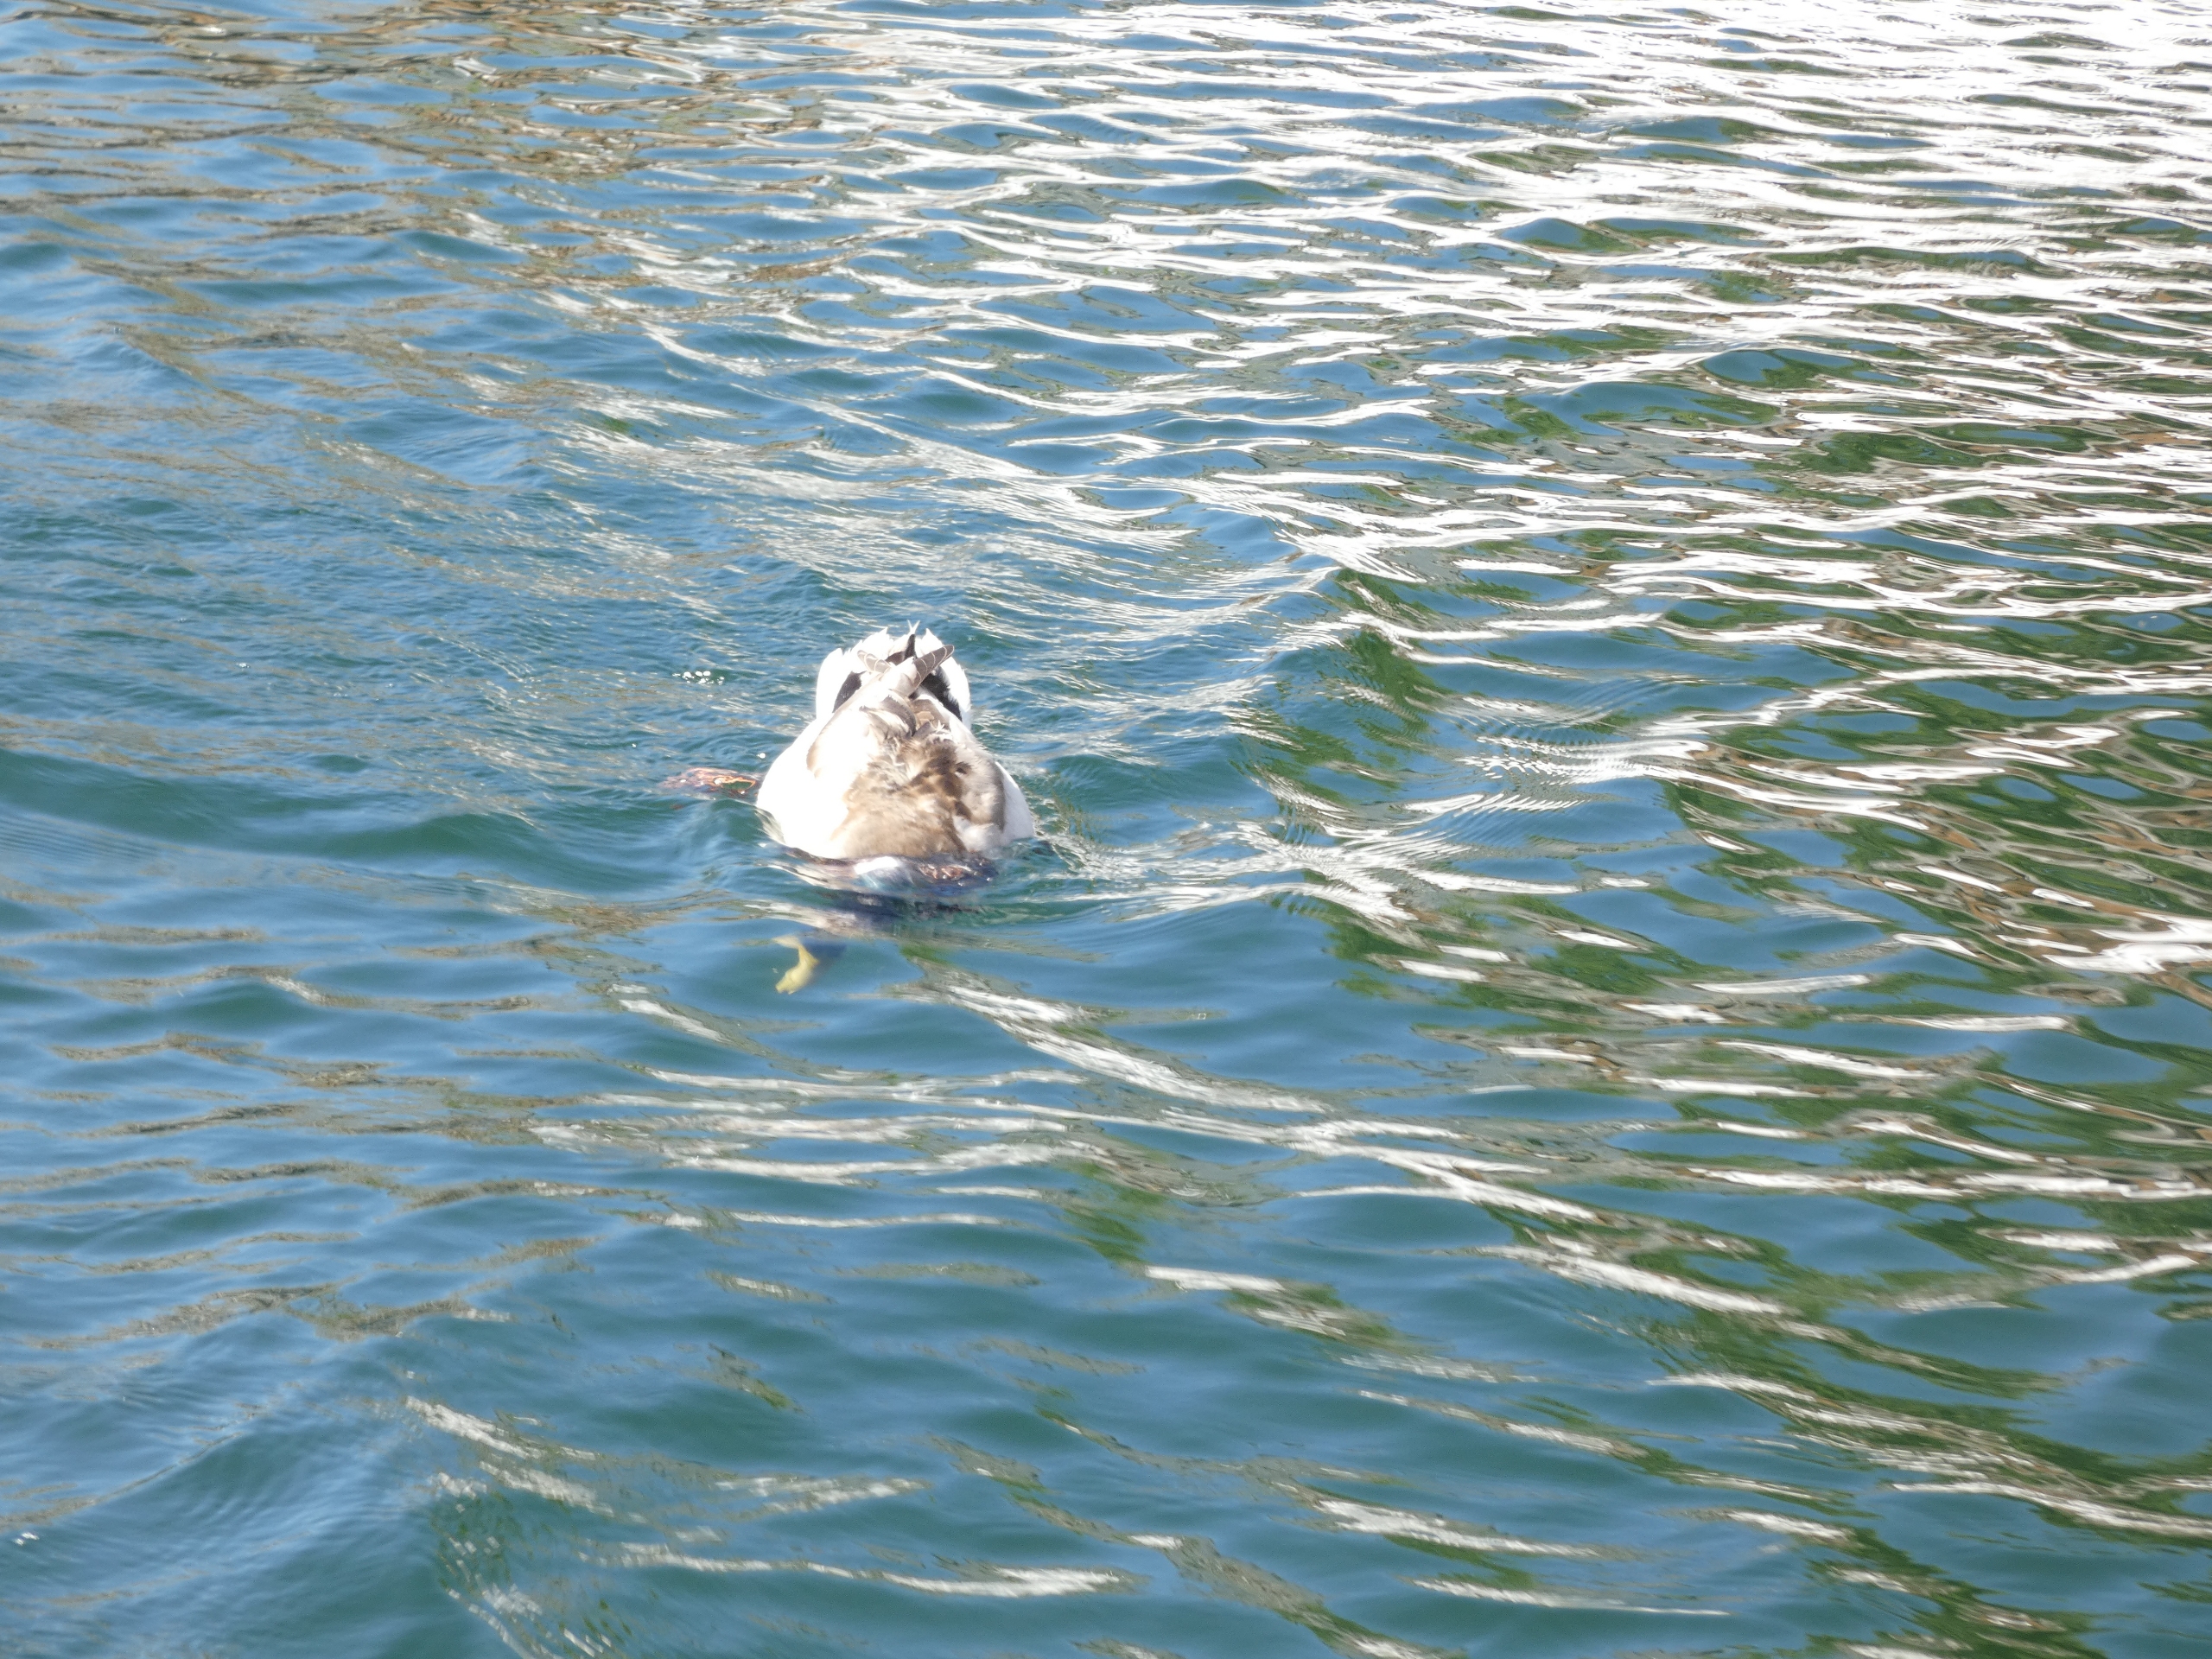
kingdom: Animalia
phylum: Chordata
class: Aves
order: Anseriformes
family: Anatidae
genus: Anas
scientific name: Anas platyrhynchos
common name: Gråand
